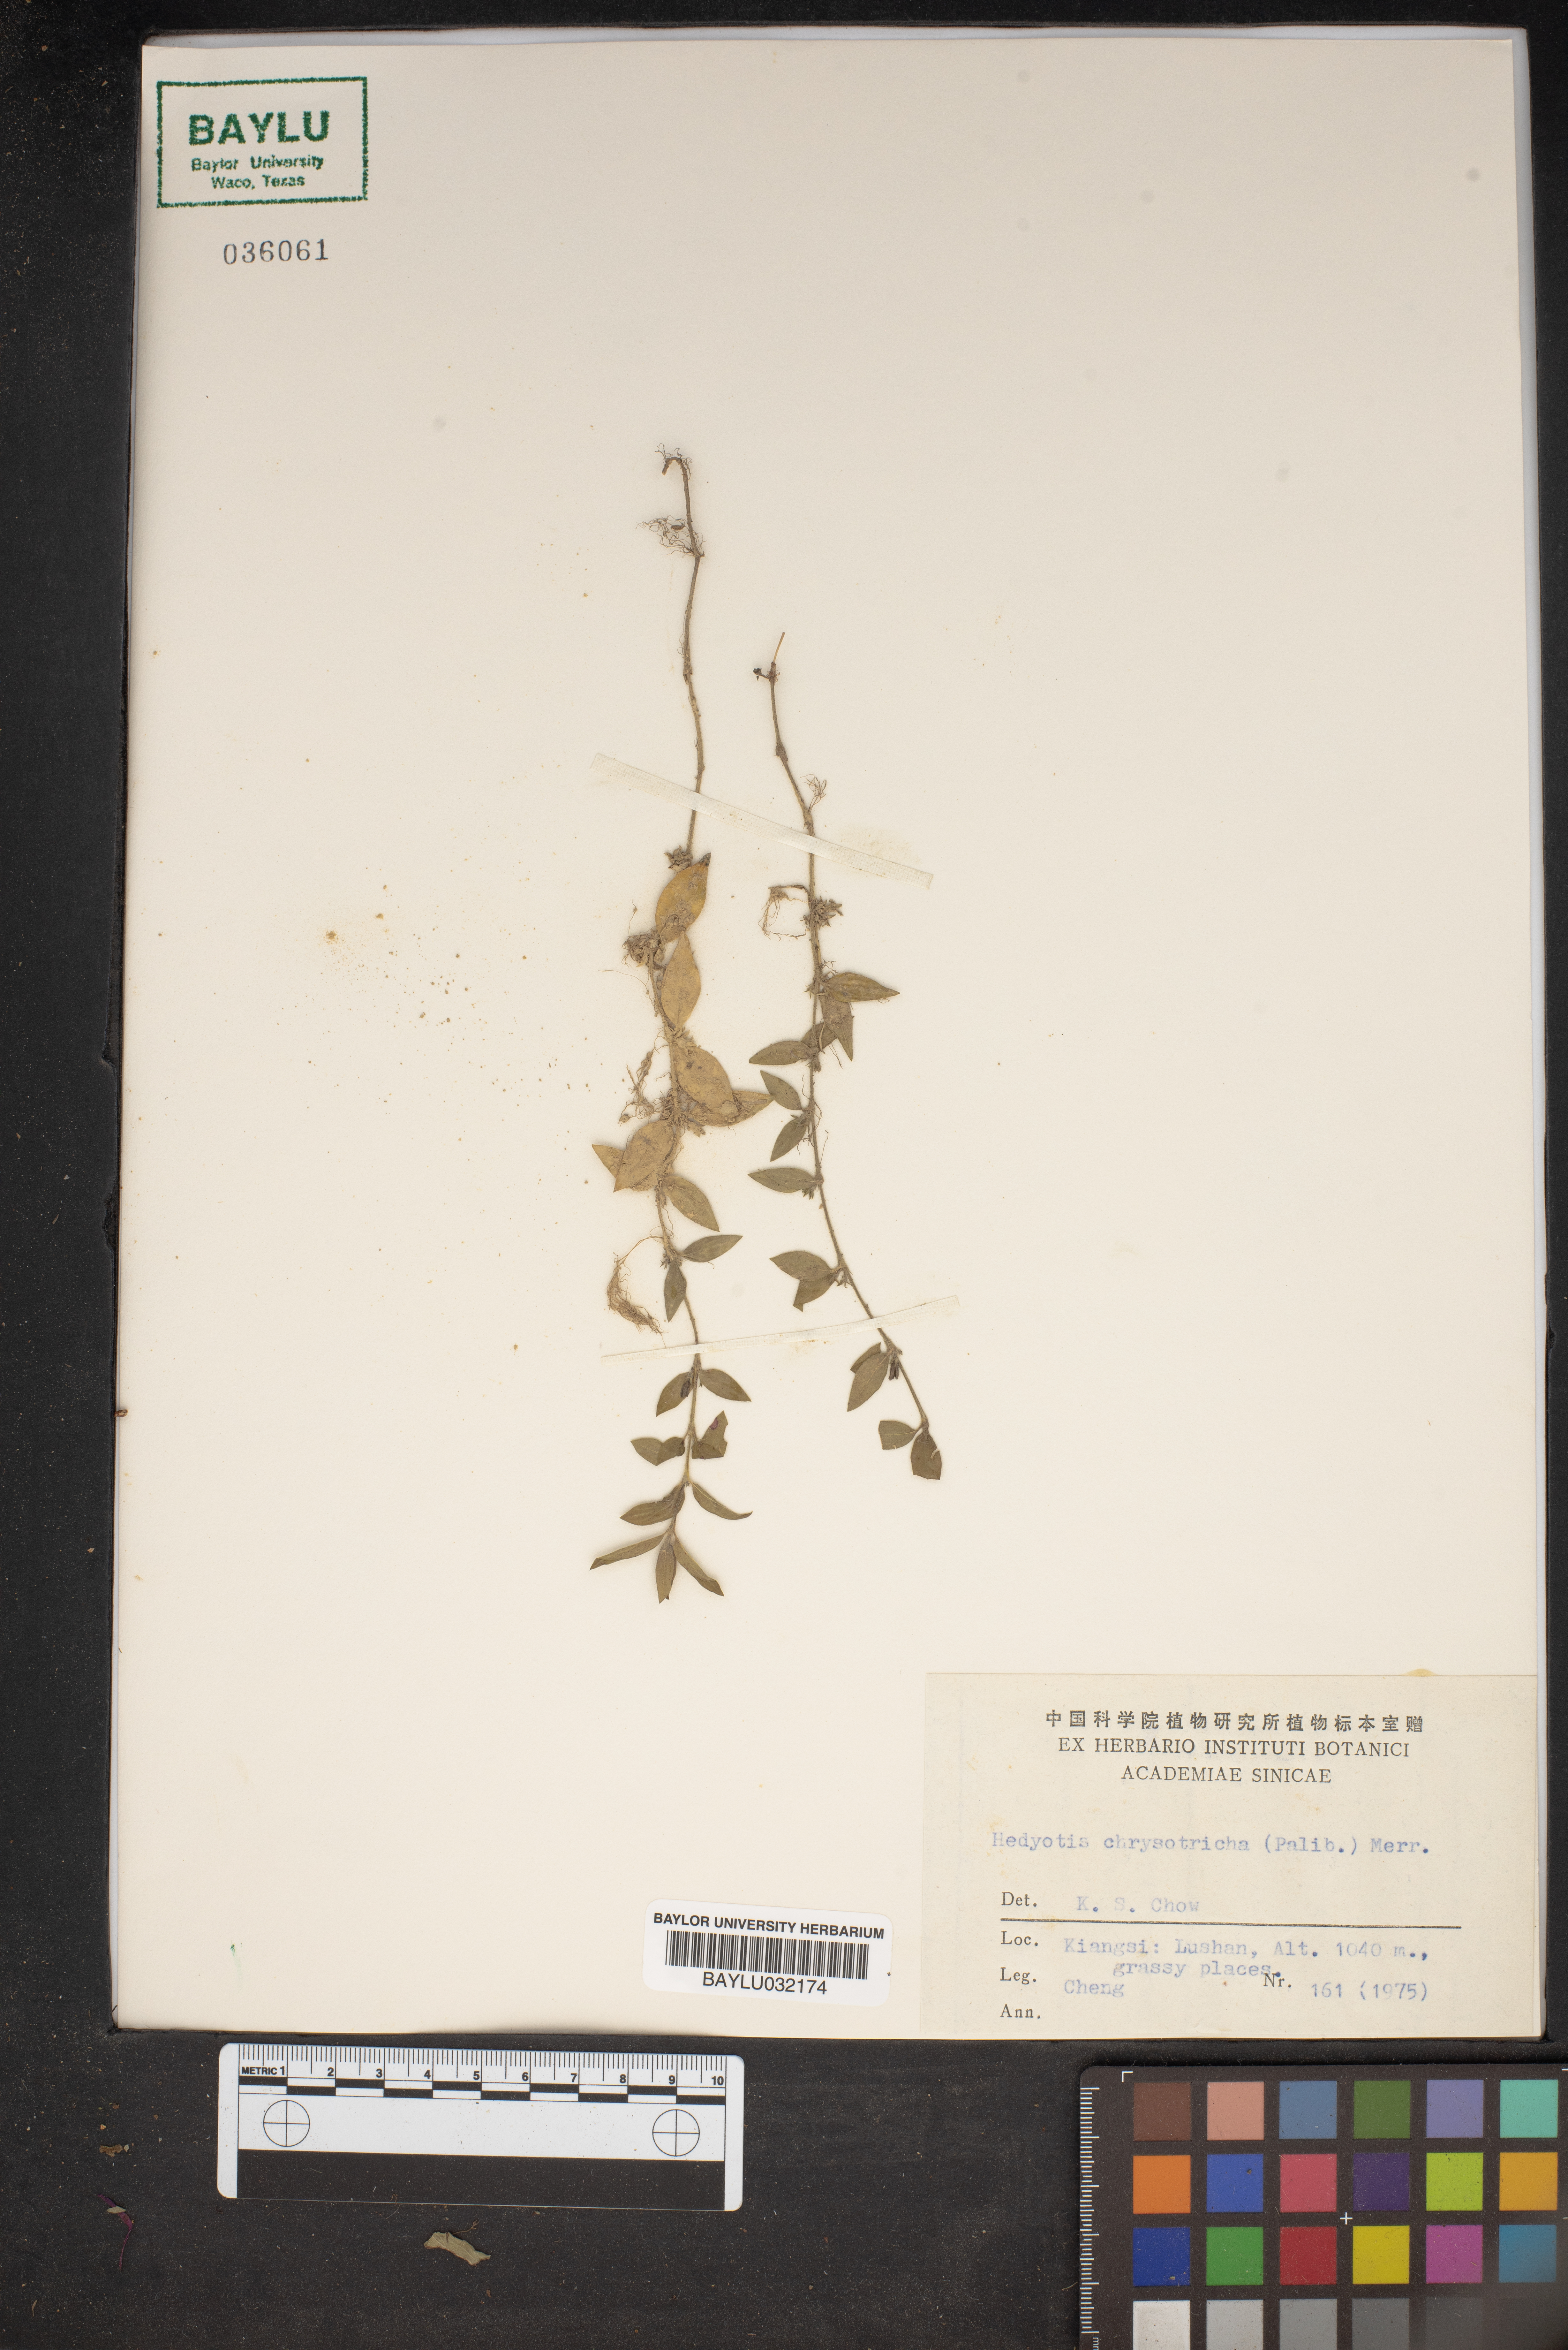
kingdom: Plantae
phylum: Tracheophyta
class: Magnoliopsida
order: Gentianales
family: Rubiaceae
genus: Exallage
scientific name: Exallage chrysotricha
